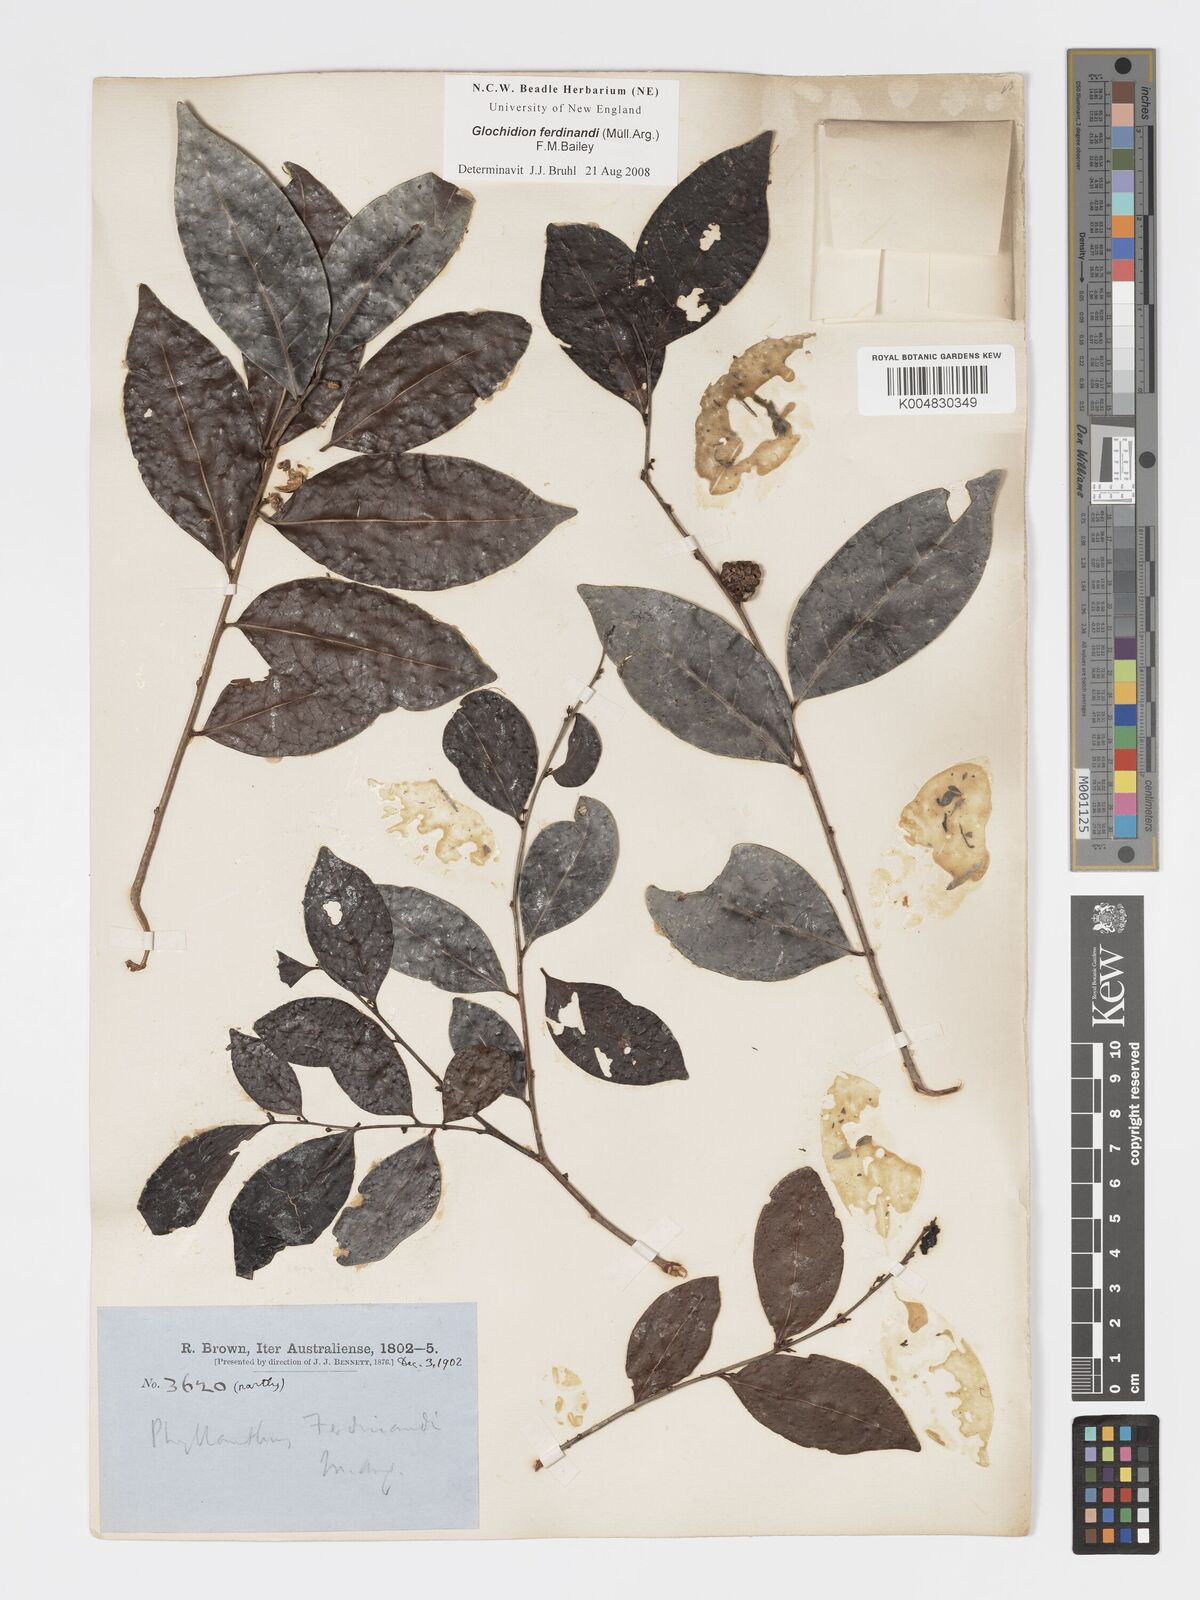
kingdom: Plantae
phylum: Tracheophyta
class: Magnoliopsida
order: Malpighiales
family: Phyllanthaceae
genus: Glochidion
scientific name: Glochidion ferdinandi
